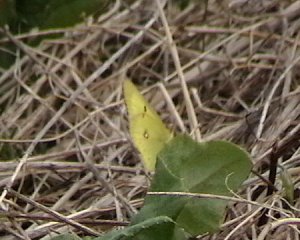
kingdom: Animalia
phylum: Arthropoda
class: Insecta
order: Lepidoptera
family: Pieridae
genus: Colias
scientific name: Colias philodice
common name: Clouded Sulphur
